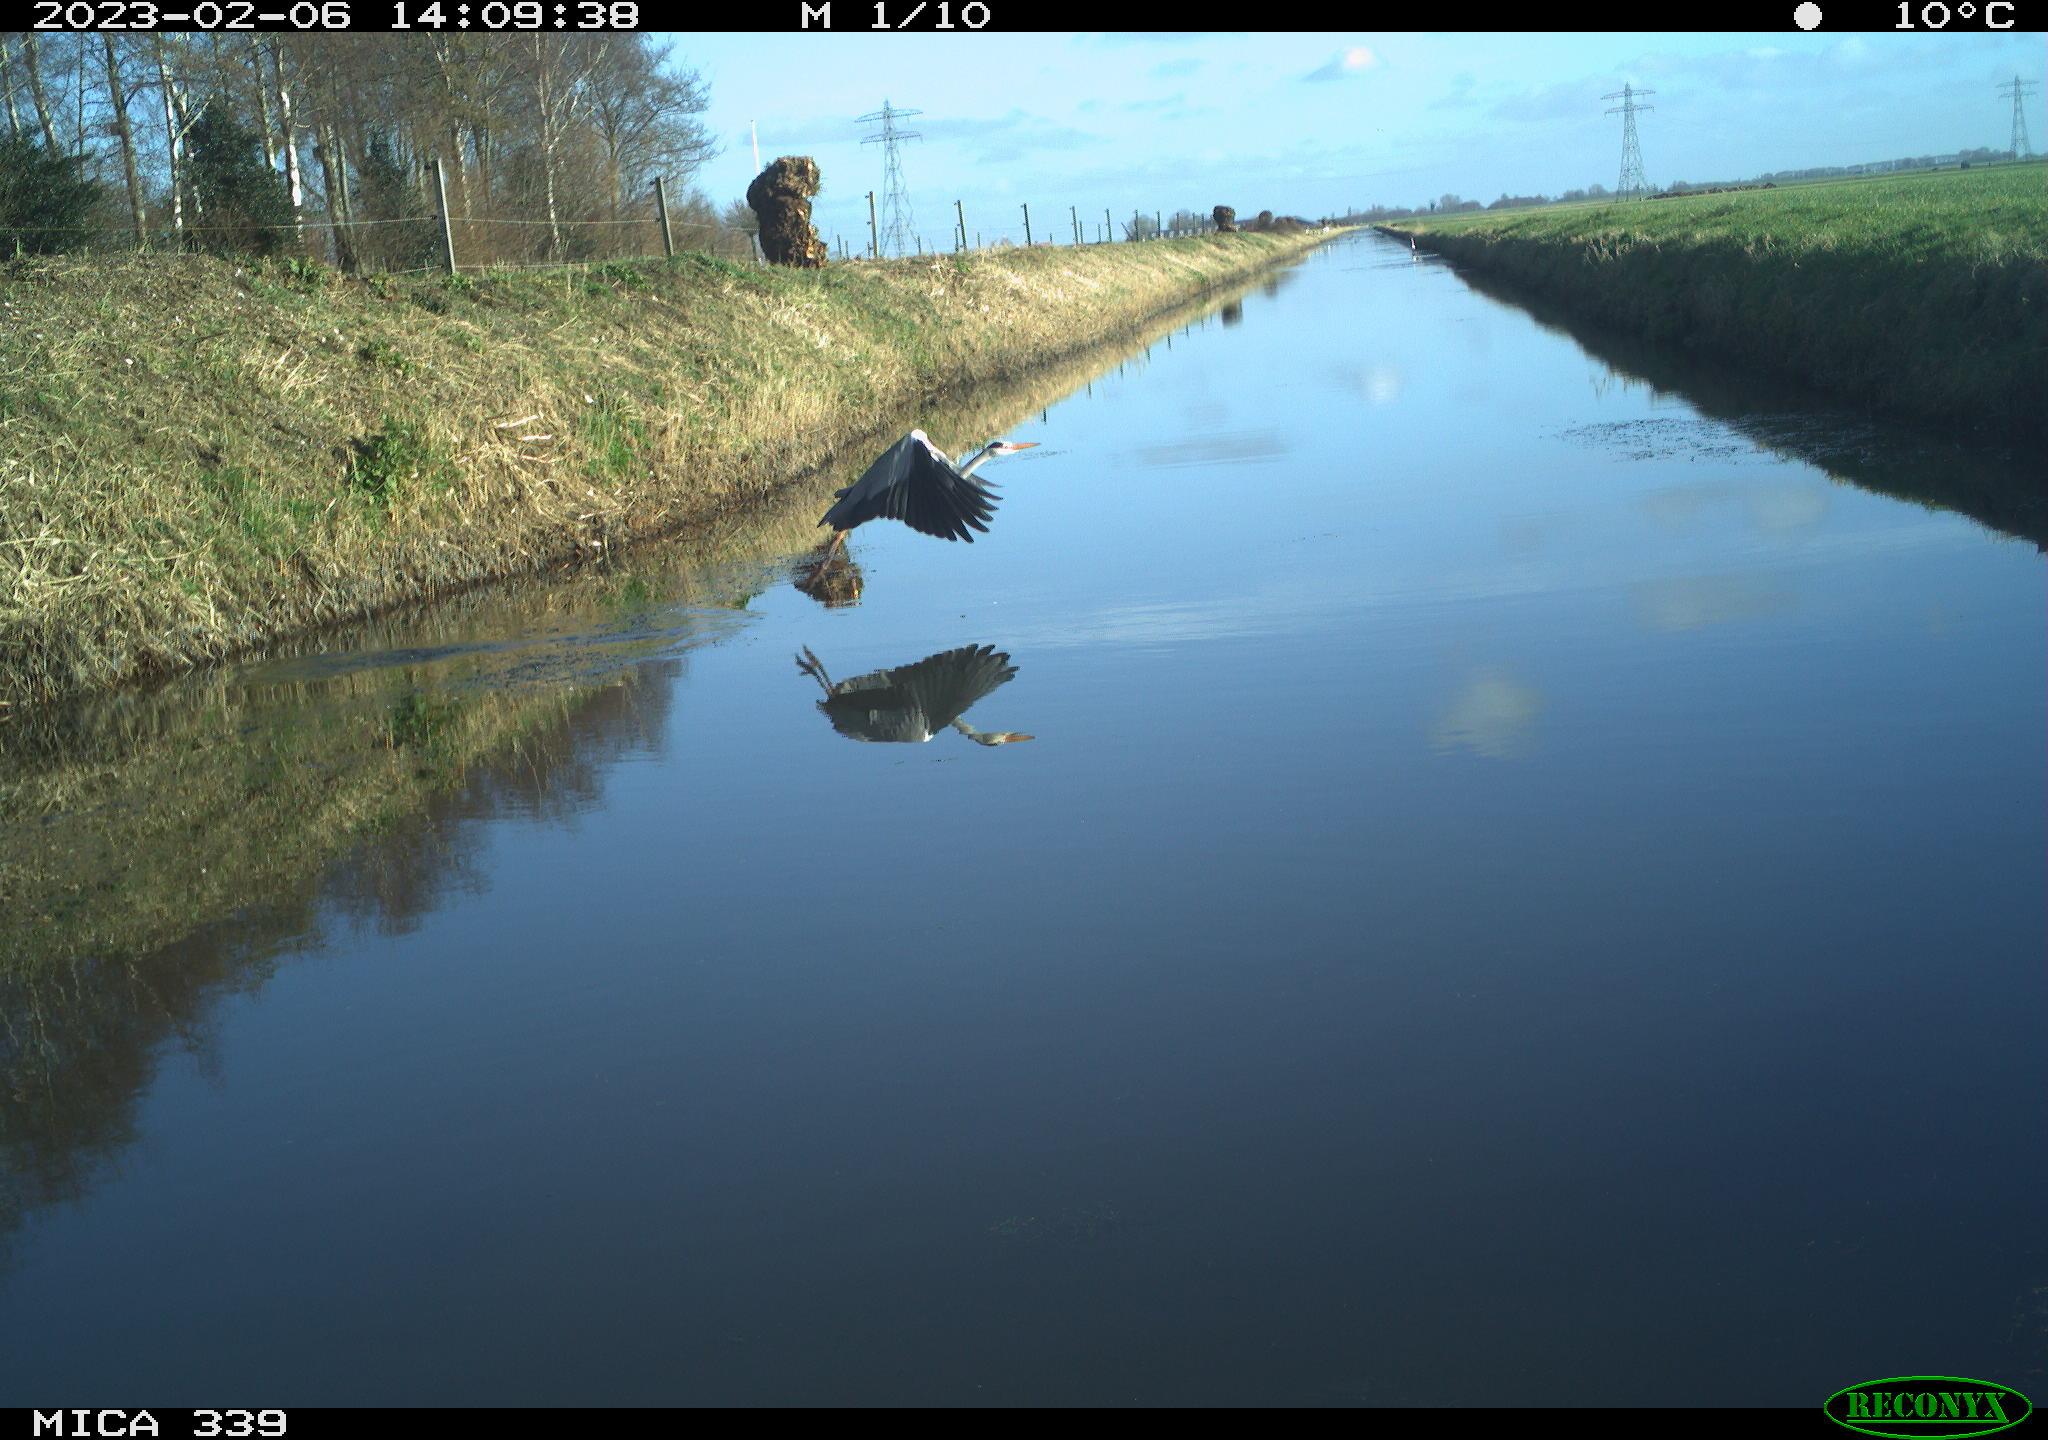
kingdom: Animalia
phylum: Chordata
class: Aves
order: Pelecaniformes
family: Ardeidae
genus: Ardea
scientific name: Ardea cinerea
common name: Grey heron
